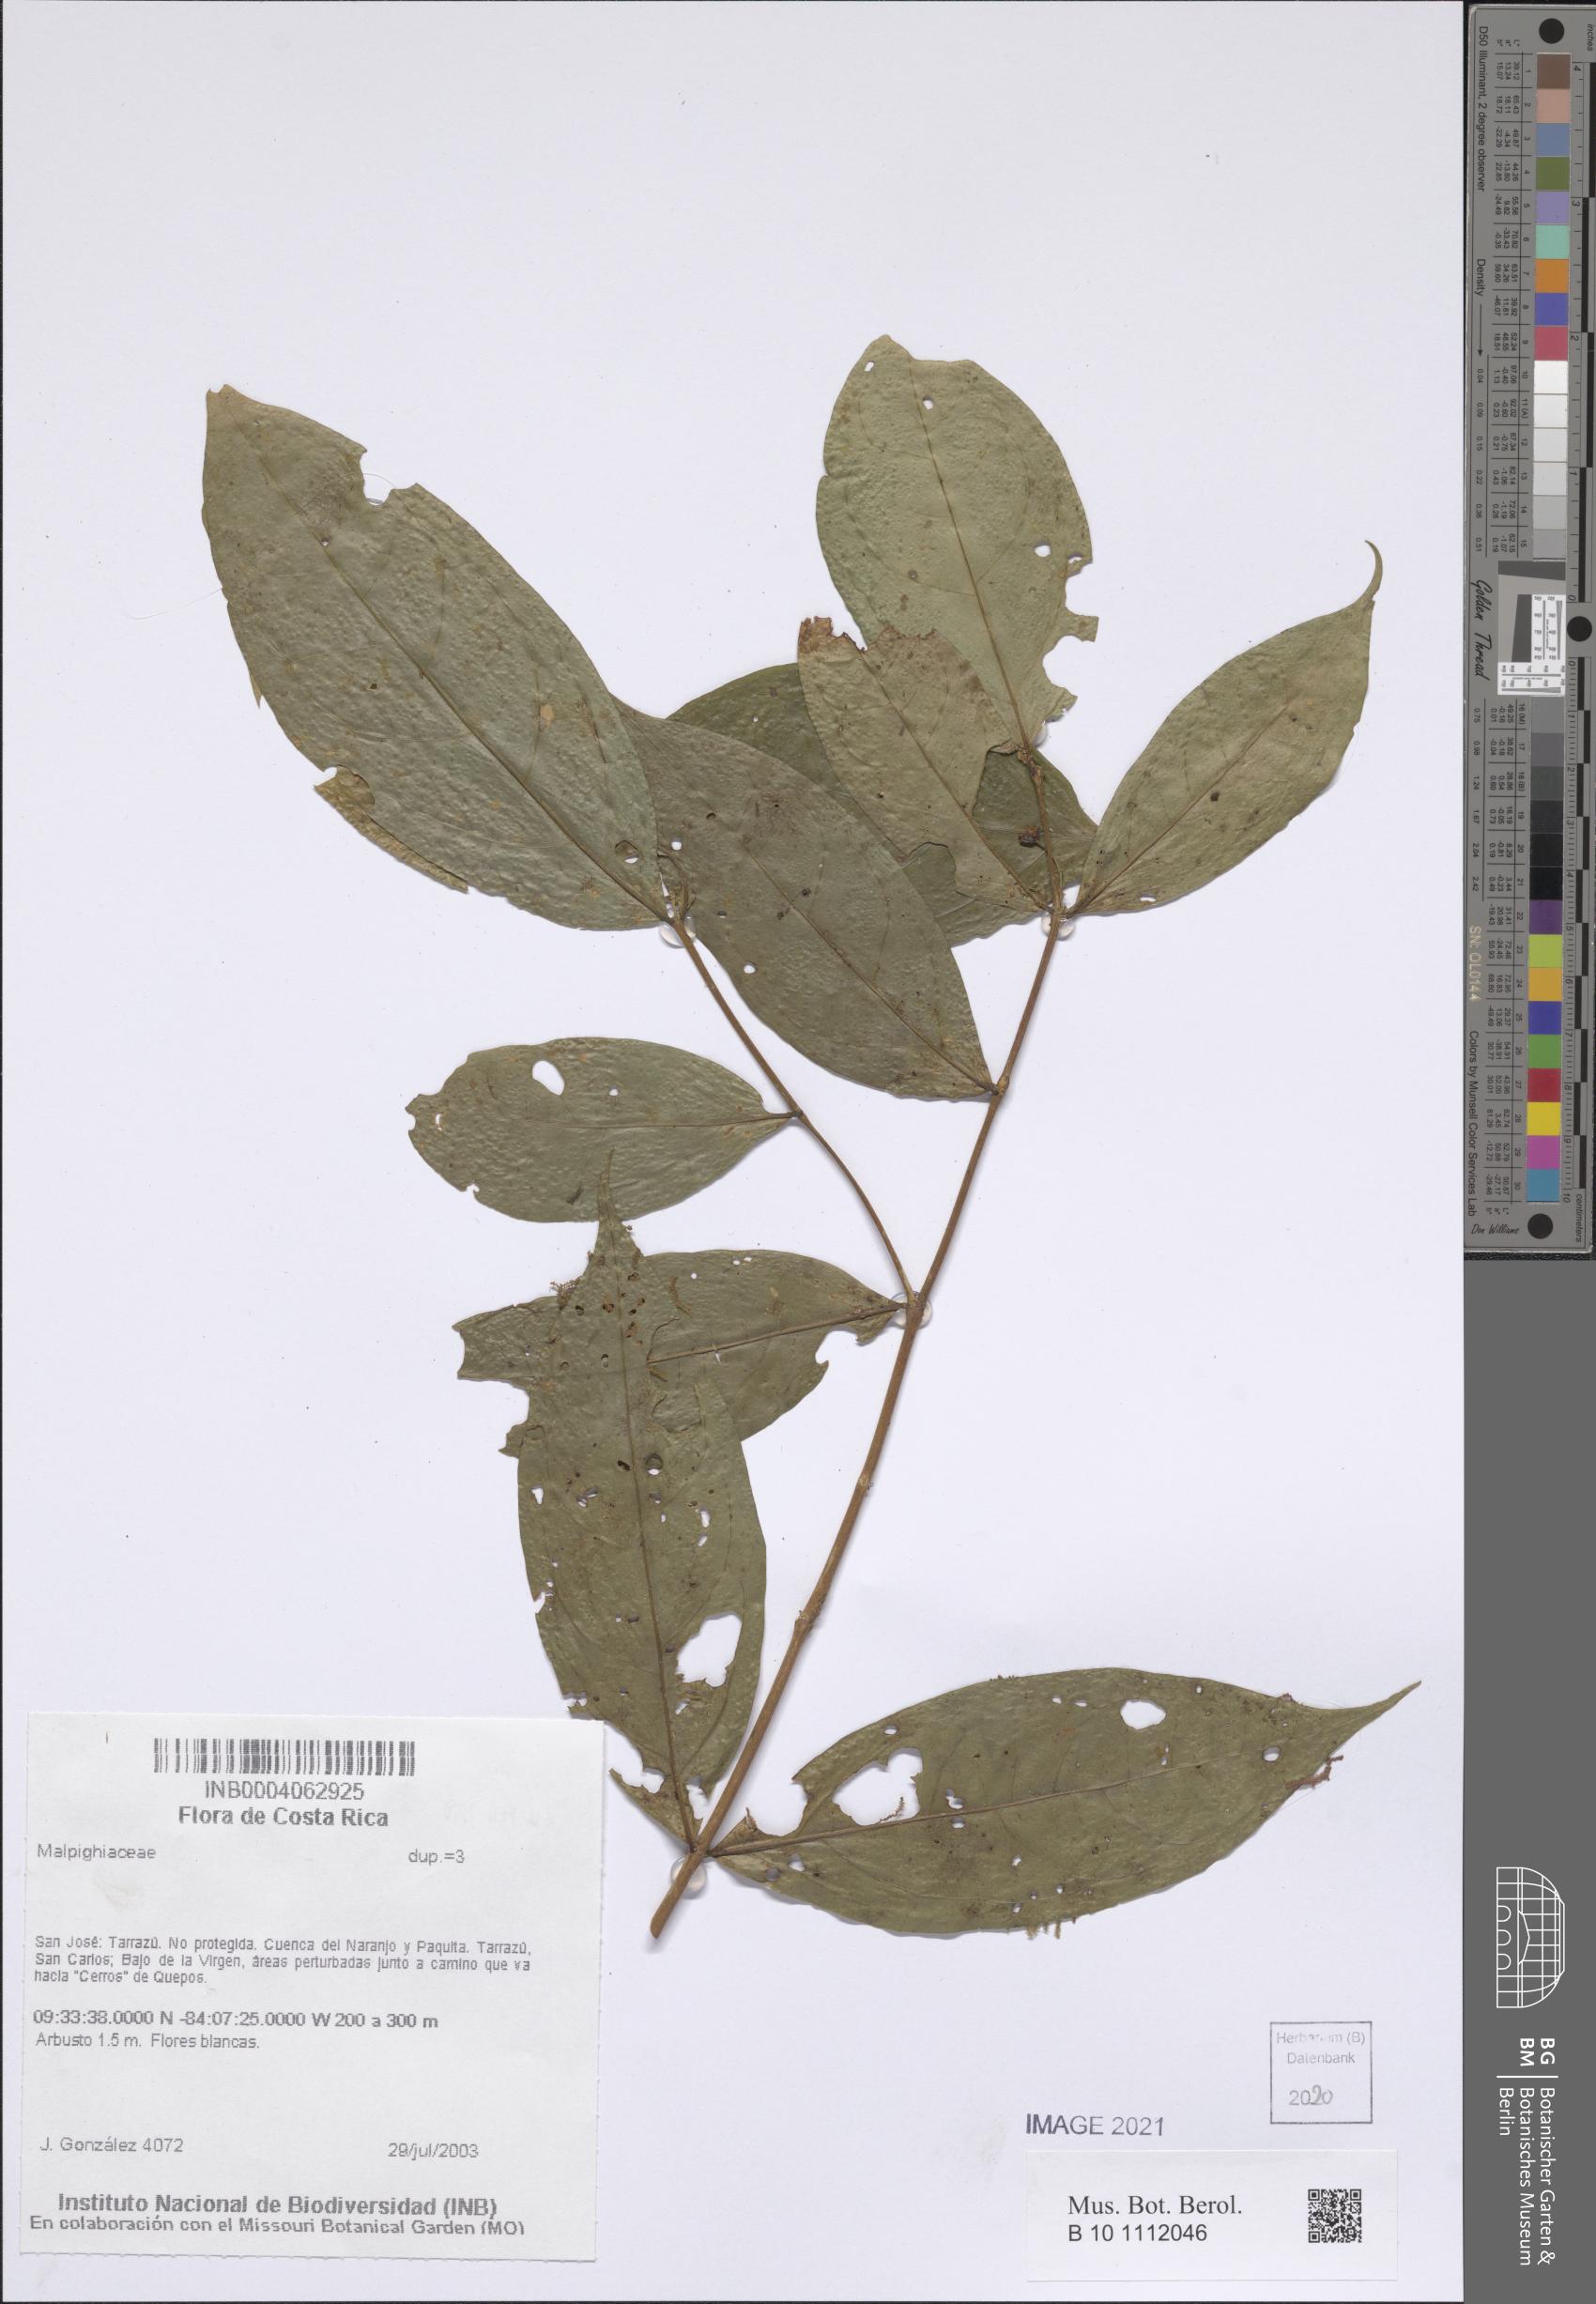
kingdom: Plantae
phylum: Tracheophyta
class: Magnoliopsida
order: Malpighiales
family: Malpighiaceae
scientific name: Malpighiaceae
